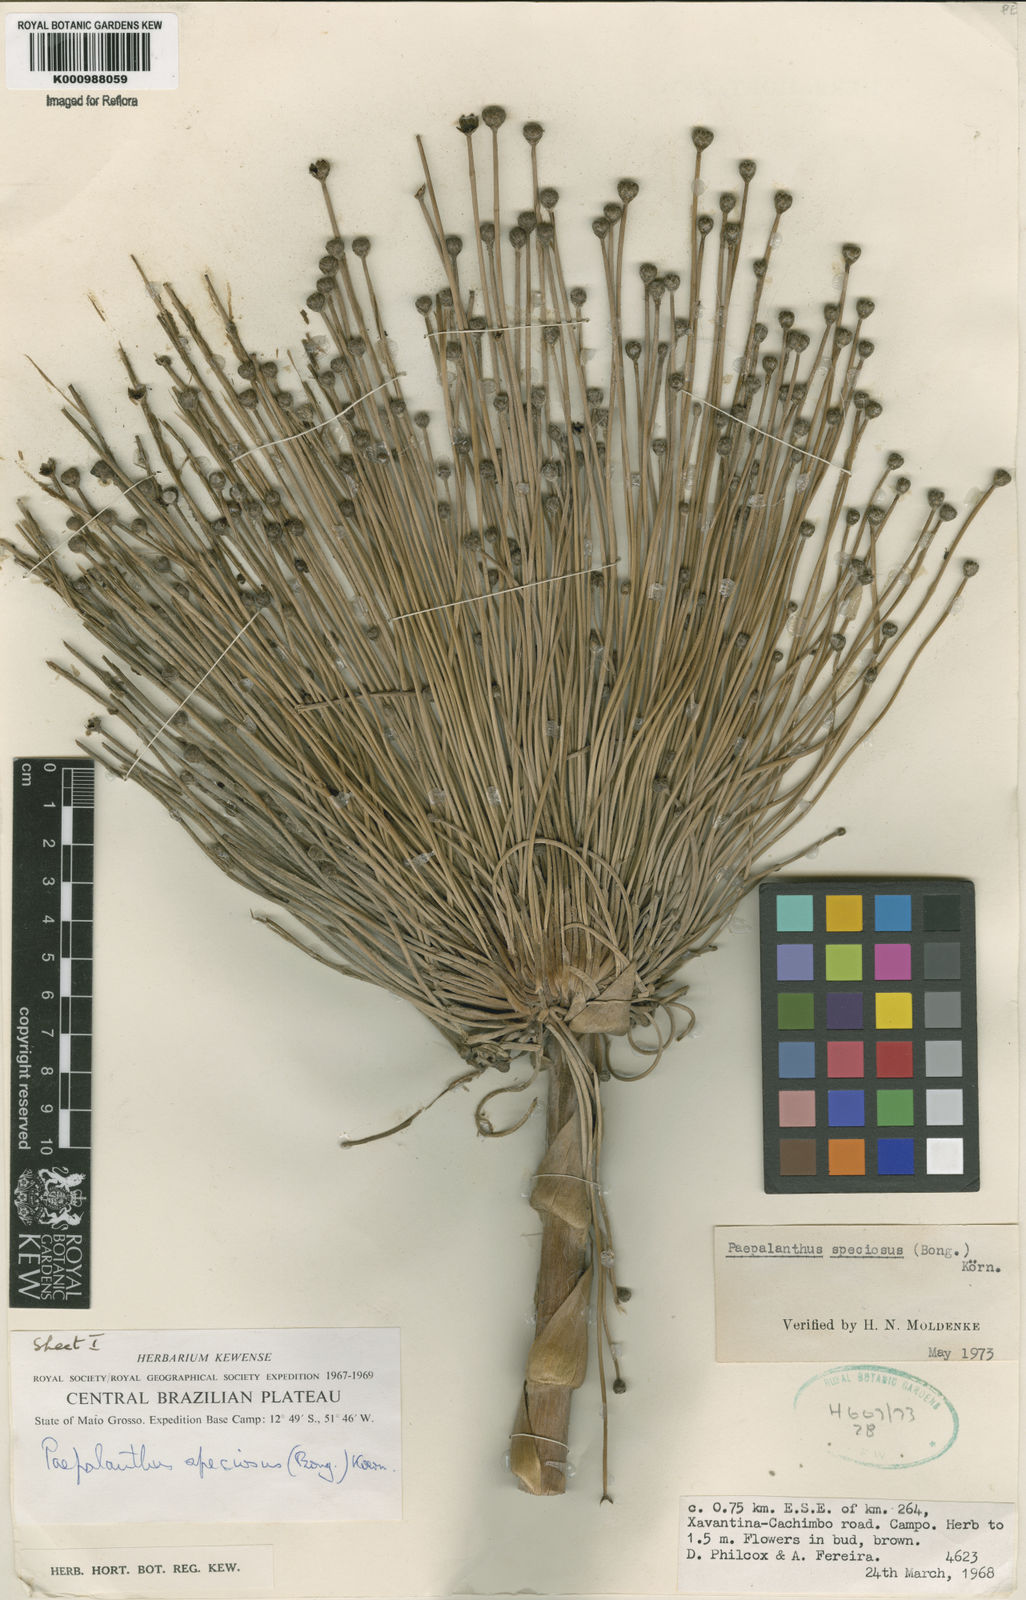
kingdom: Plantae
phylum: Tracheophyta
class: Liliopsida
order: Poales
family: Eriocaulaceae
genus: Paepalanthus
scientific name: Paepalanthus
